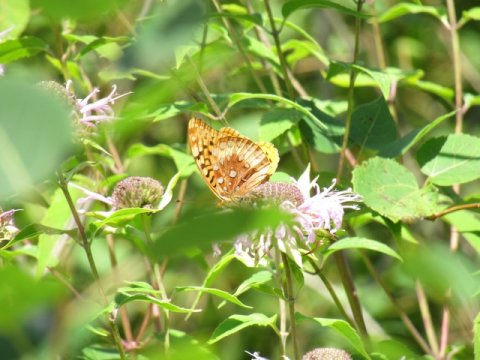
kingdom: Animalia
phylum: Arthropoda
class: Insecta
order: Lepidoptera
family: Nymphalidae
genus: Speyeria
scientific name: Speyeria cybele
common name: Great Spangled Fritillary
